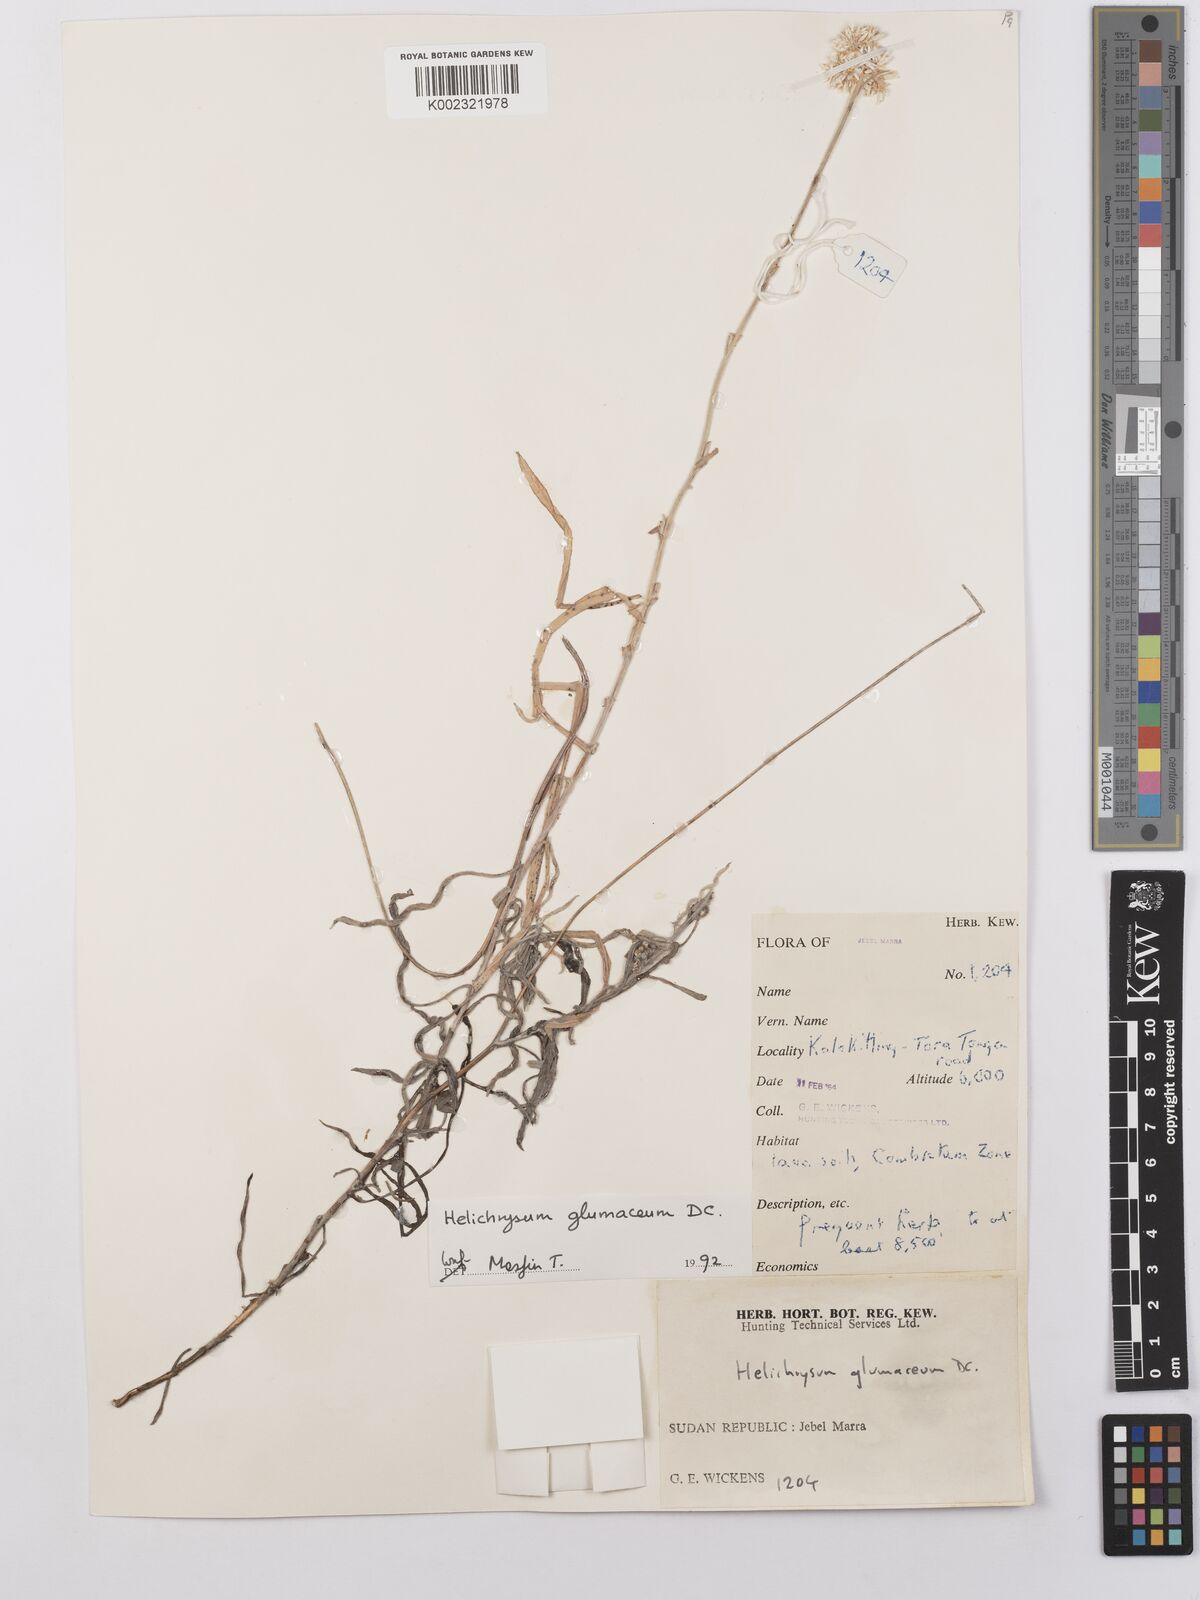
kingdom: Plantae
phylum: Tracheophyta
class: Magnoliopsida
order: Asterales
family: Asteraceae
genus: Helichrysum
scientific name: Helichrysum glumaceum
